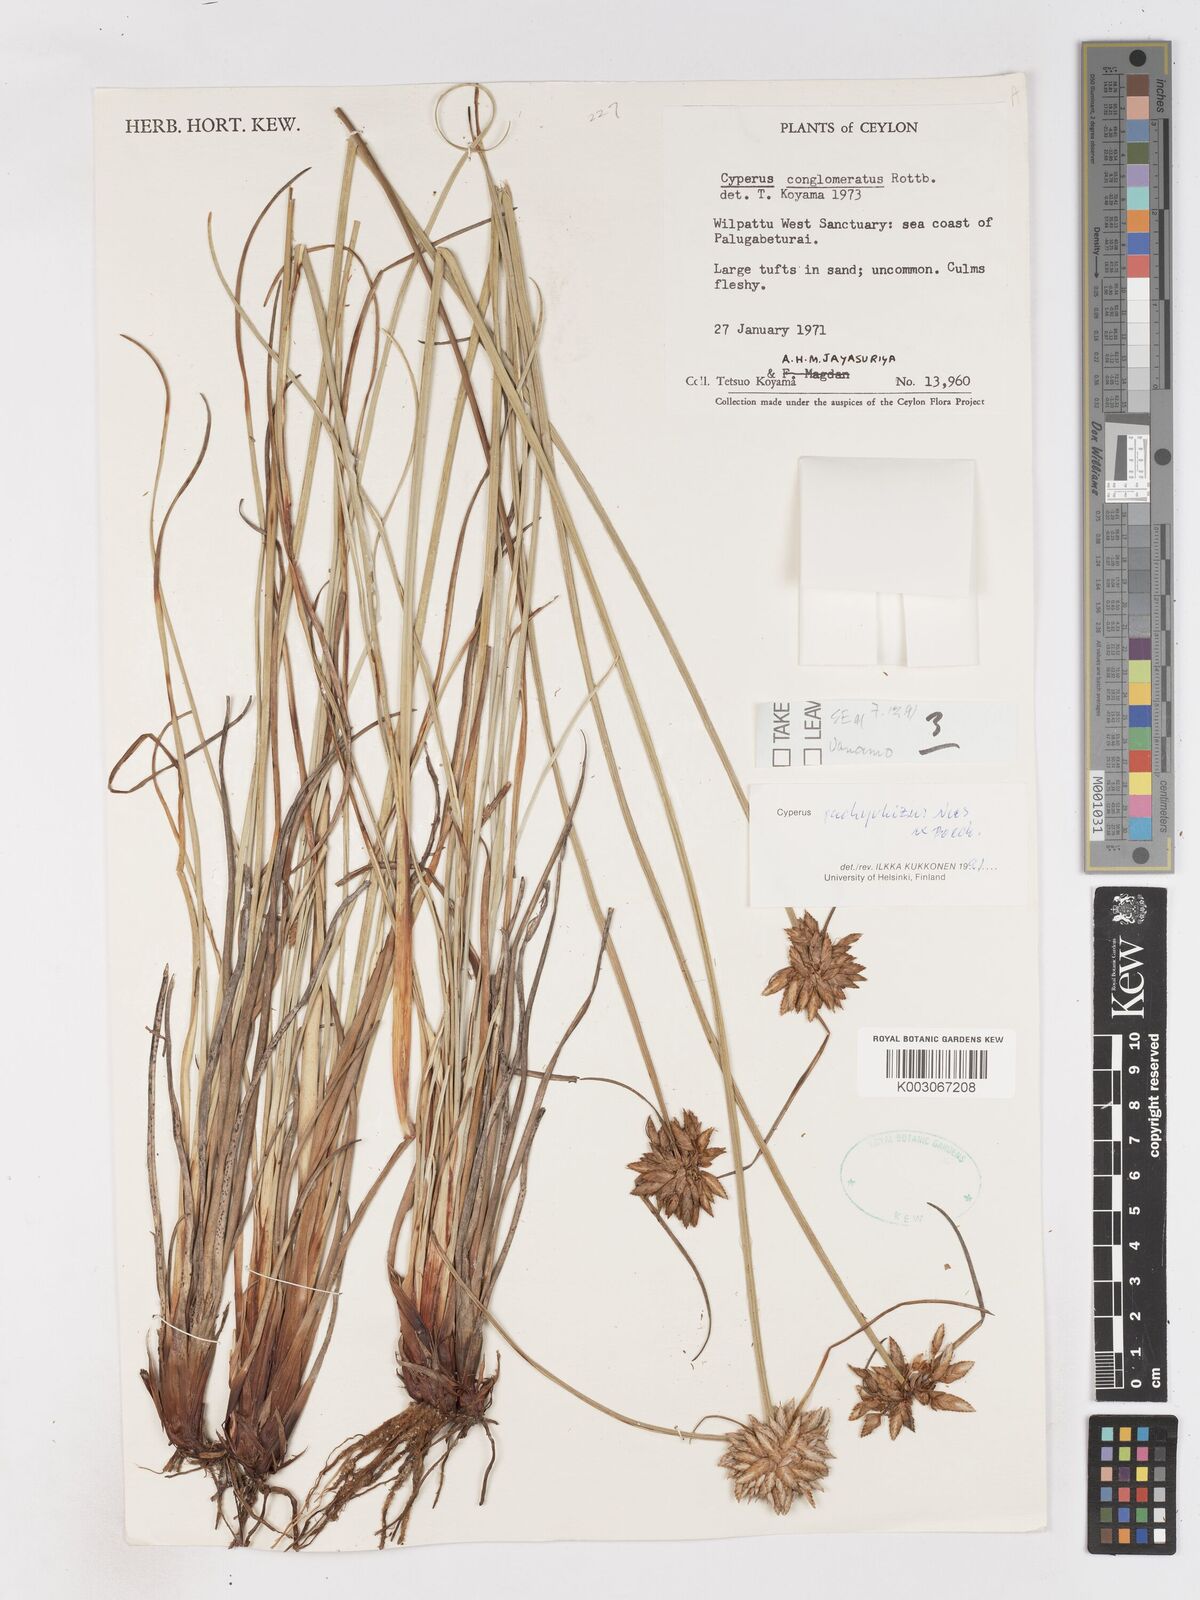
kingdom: Plantae
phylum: Tracheophyta
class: Liliopsida
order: Poales
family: Cyperaceae
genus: Cyperus
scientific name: Cyperus conglomeratus
